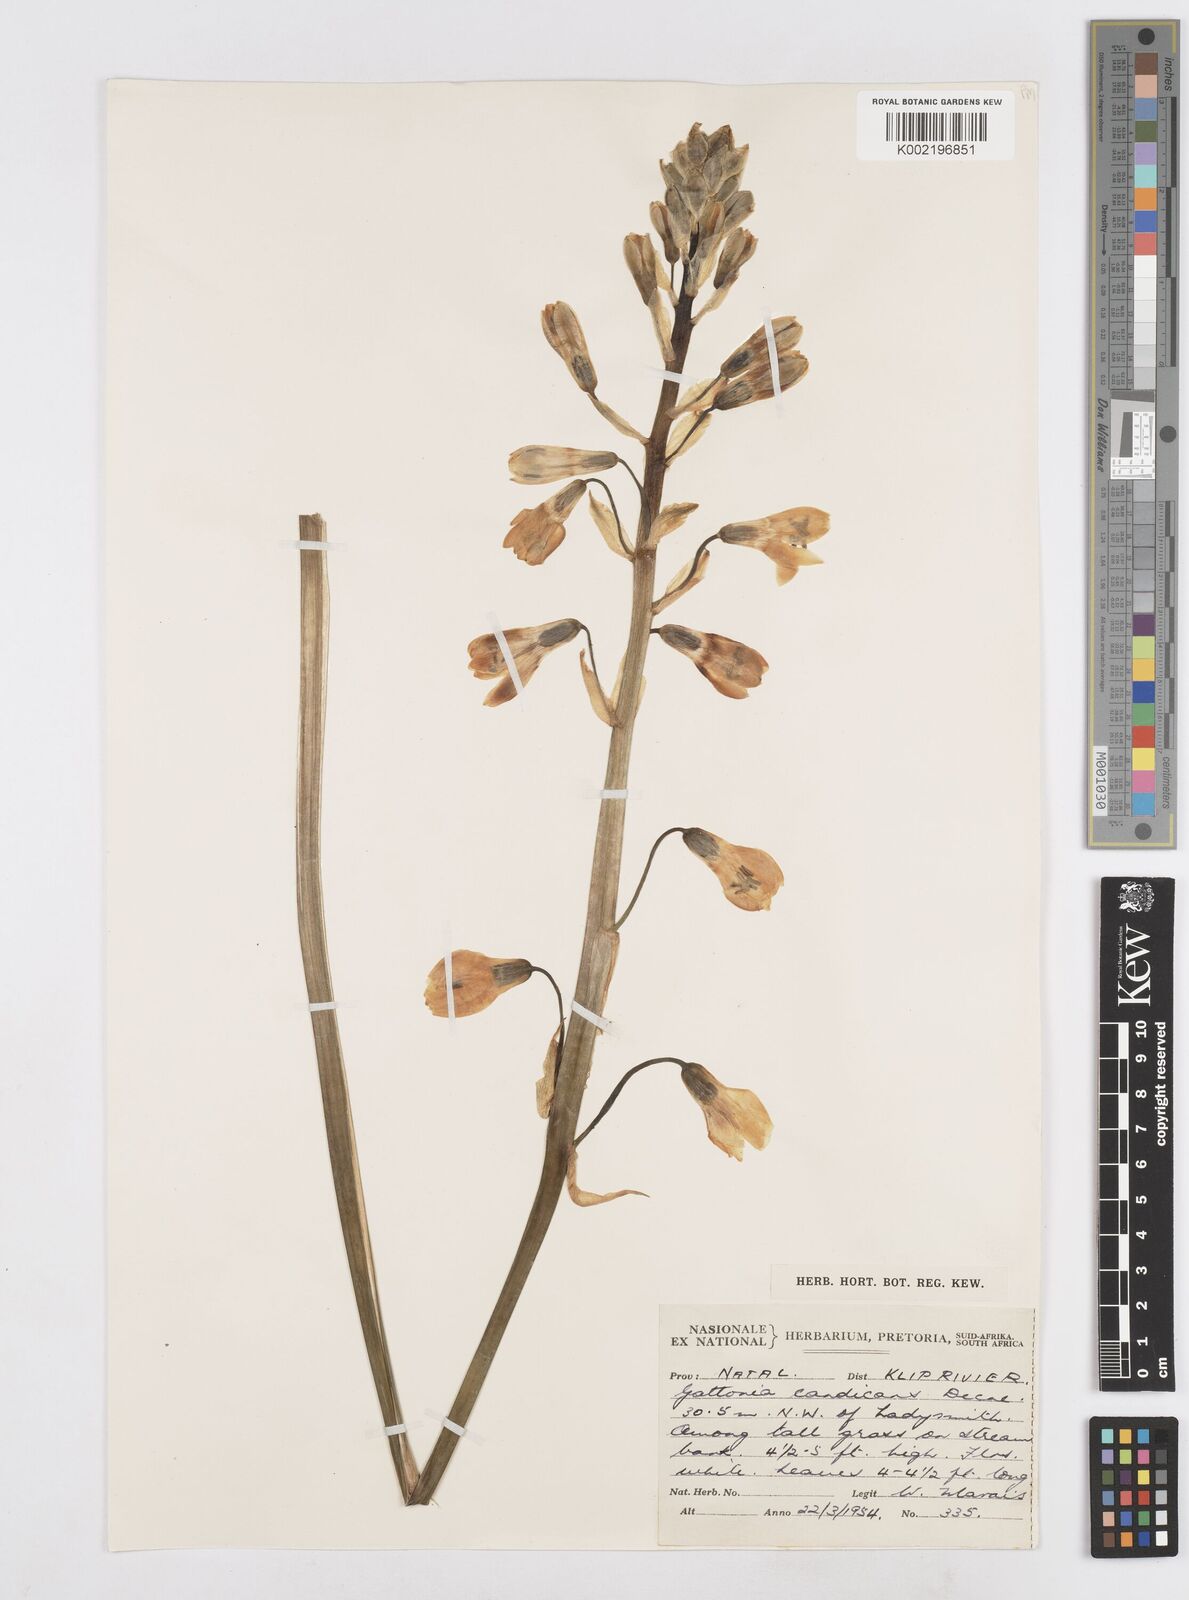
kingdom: Plantae
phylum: Tracheophyta
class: Liliopsida
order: Asparagales
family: Asparagaceae
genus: Ornithogalum
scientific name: Ornithogalum candicans
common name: Summer-hyacinth
